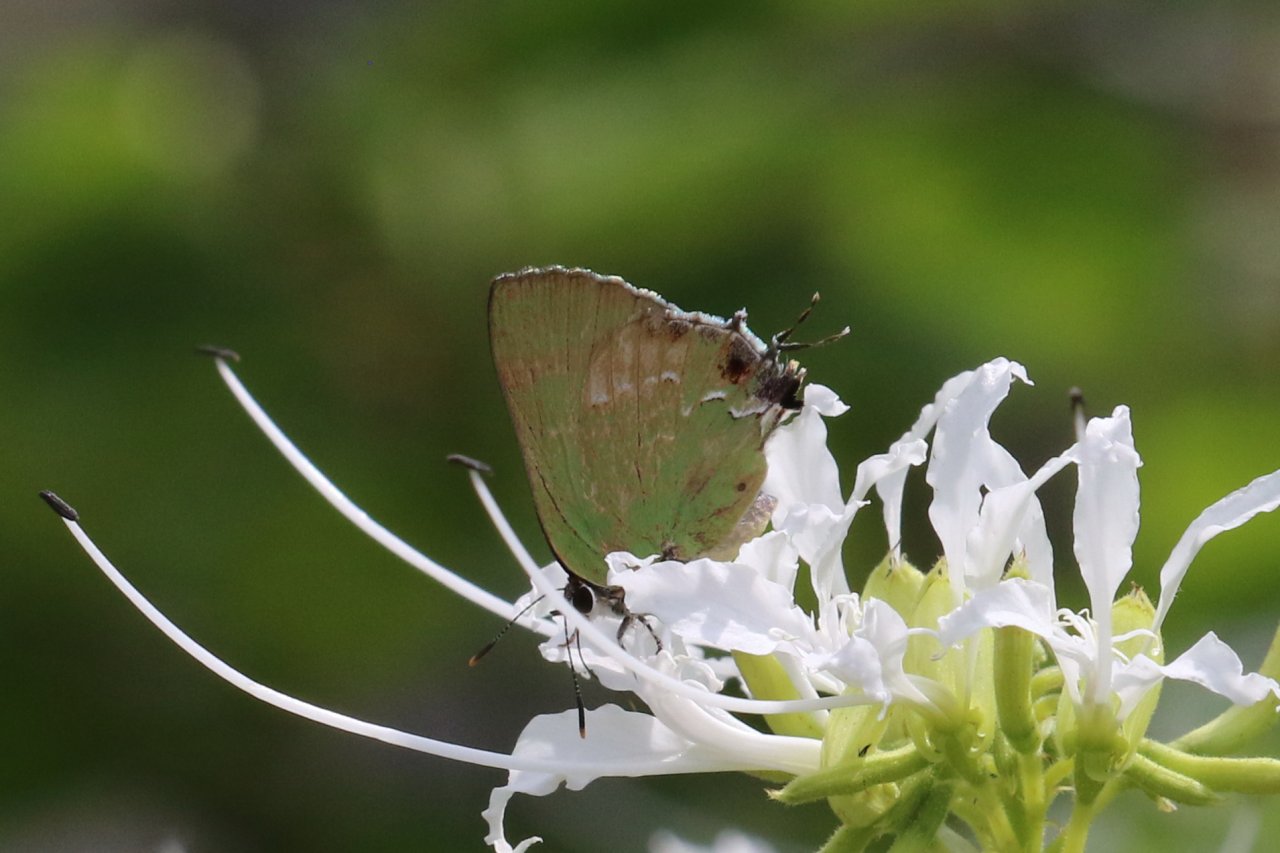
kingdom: Animalia
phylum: Arthropoda
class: Insecta
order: Lepidoptera
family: Lycaenidae
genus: Cyanophrys
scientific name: Cyanophrys miserabilis
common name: Clench's Greenstreak
